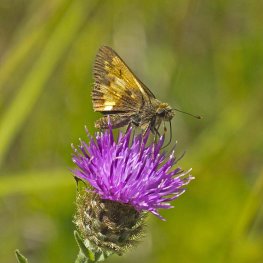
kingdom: Animalia
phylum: Arthropoda
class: Insecta
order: Lepidoptera
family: Hesperiidae
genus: Lon
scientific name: Lon hobomok
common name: Hobomok Skipper
